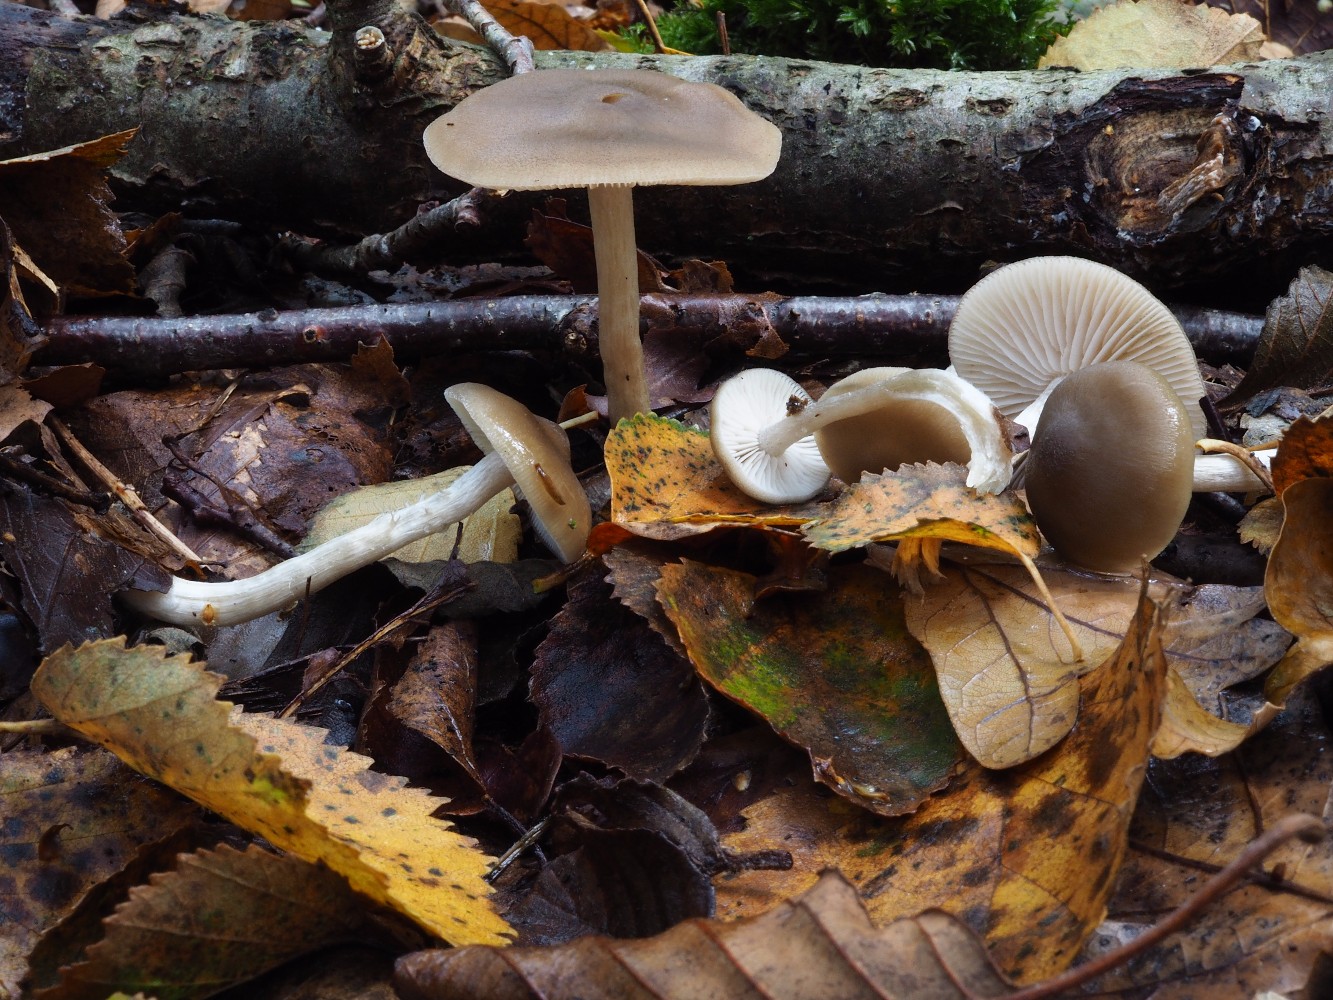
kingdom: Fungi
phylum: Basidiomycota
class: Agaricomycetes
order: Agaricales
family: Entolomataceae
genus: Entoloma
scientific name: Entoloma
